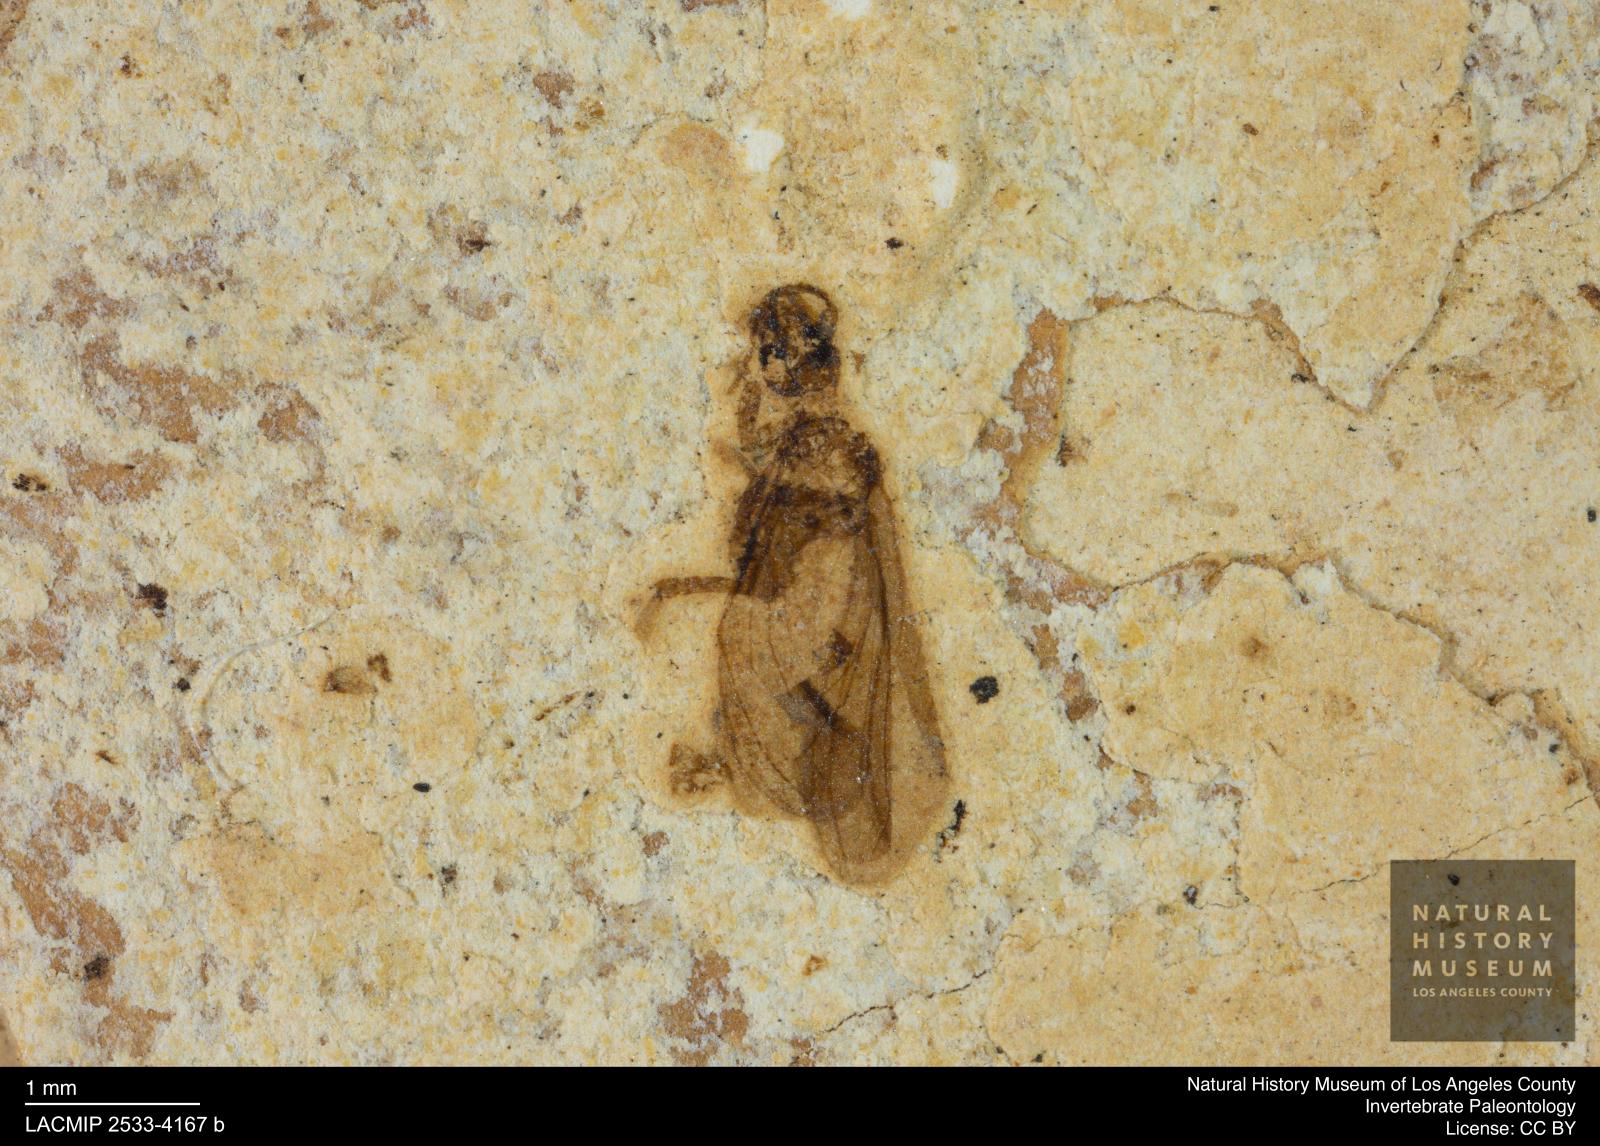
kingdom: Animalia
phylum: Arthropoda
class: Insecta
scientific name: Insecta
